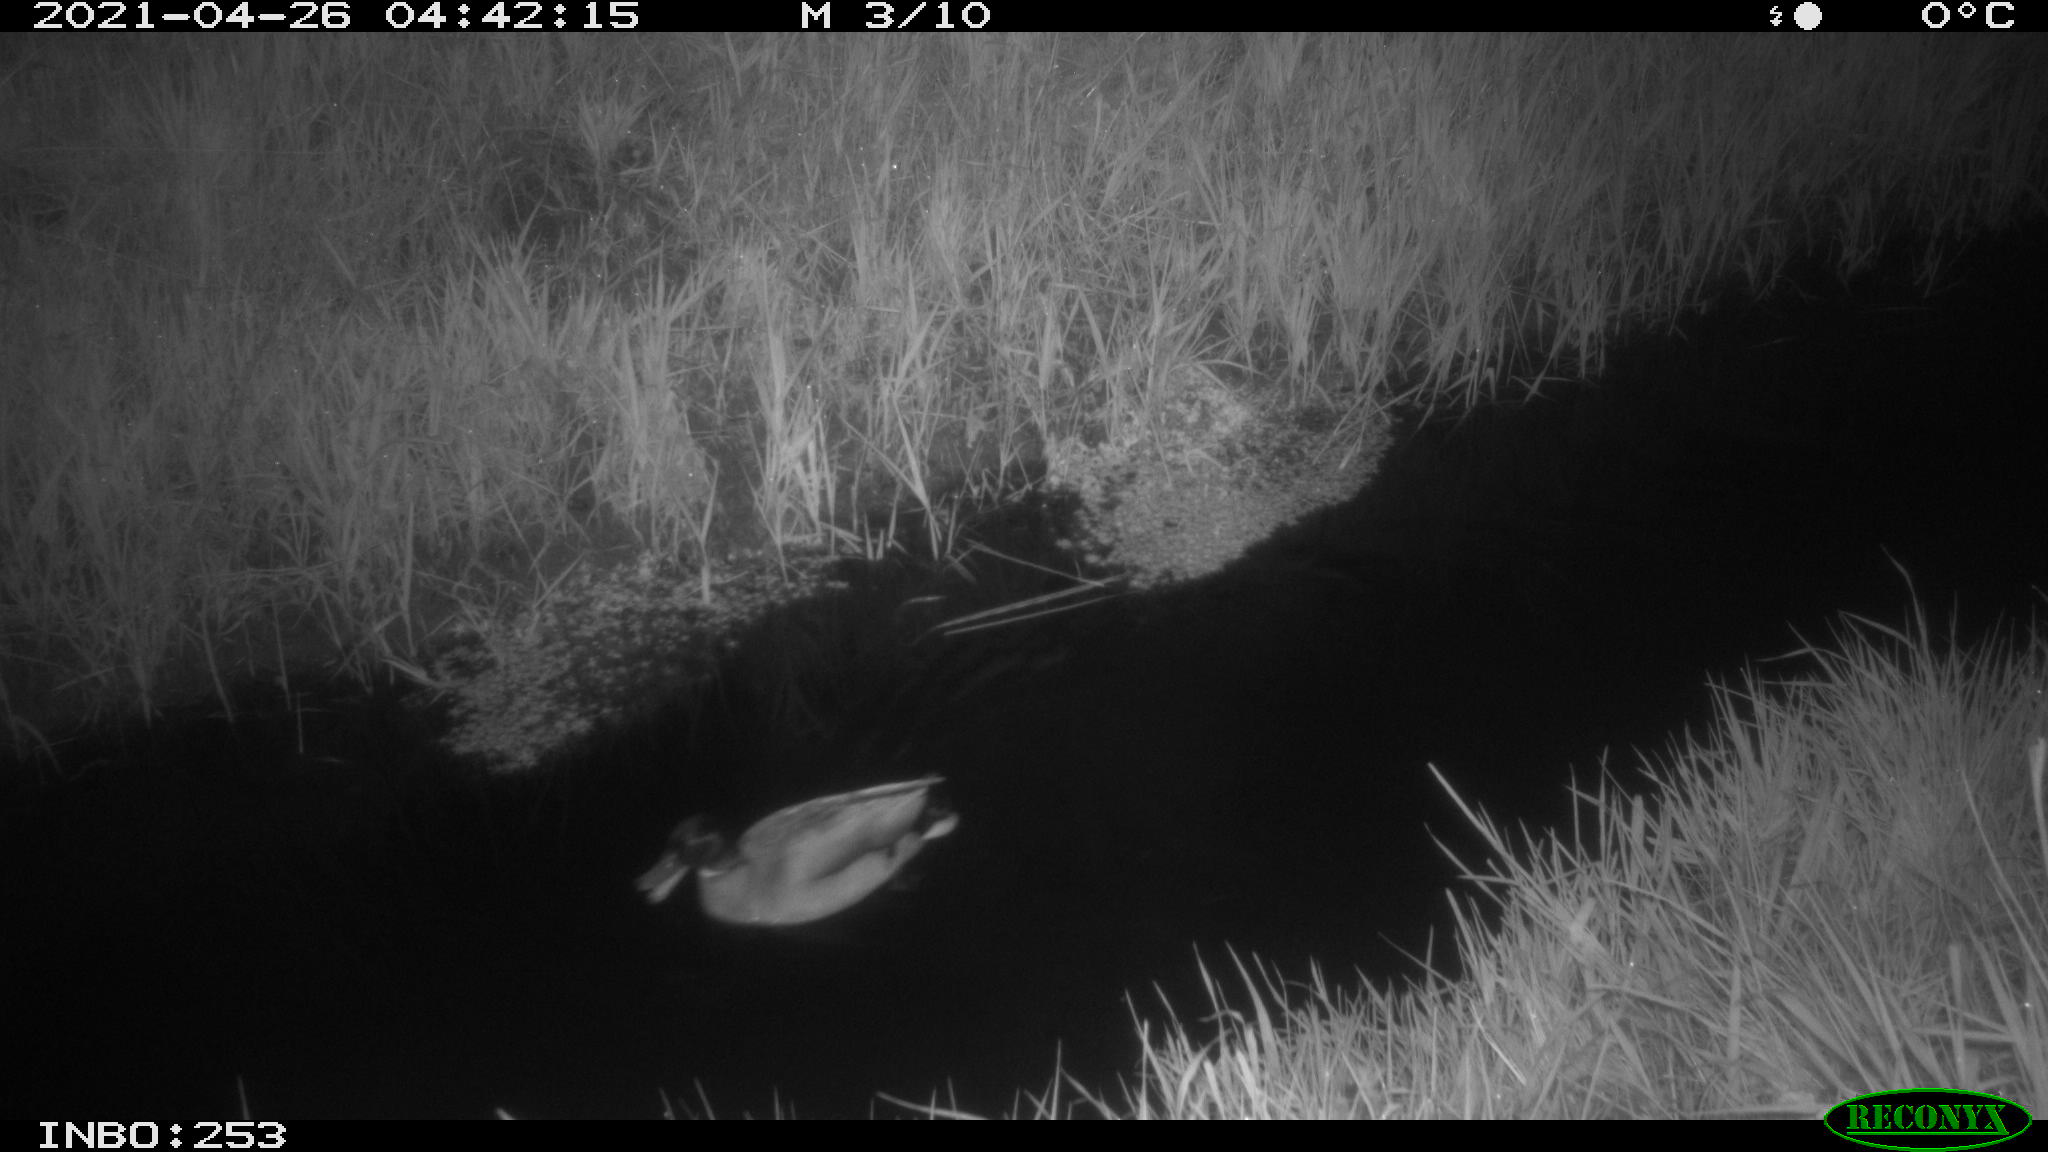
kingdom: Animalia
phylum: Chordata
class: Aves
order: Anseriformes
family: Anatidae
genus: Anas
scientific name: Anas platyrhynchos
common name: Mallard
